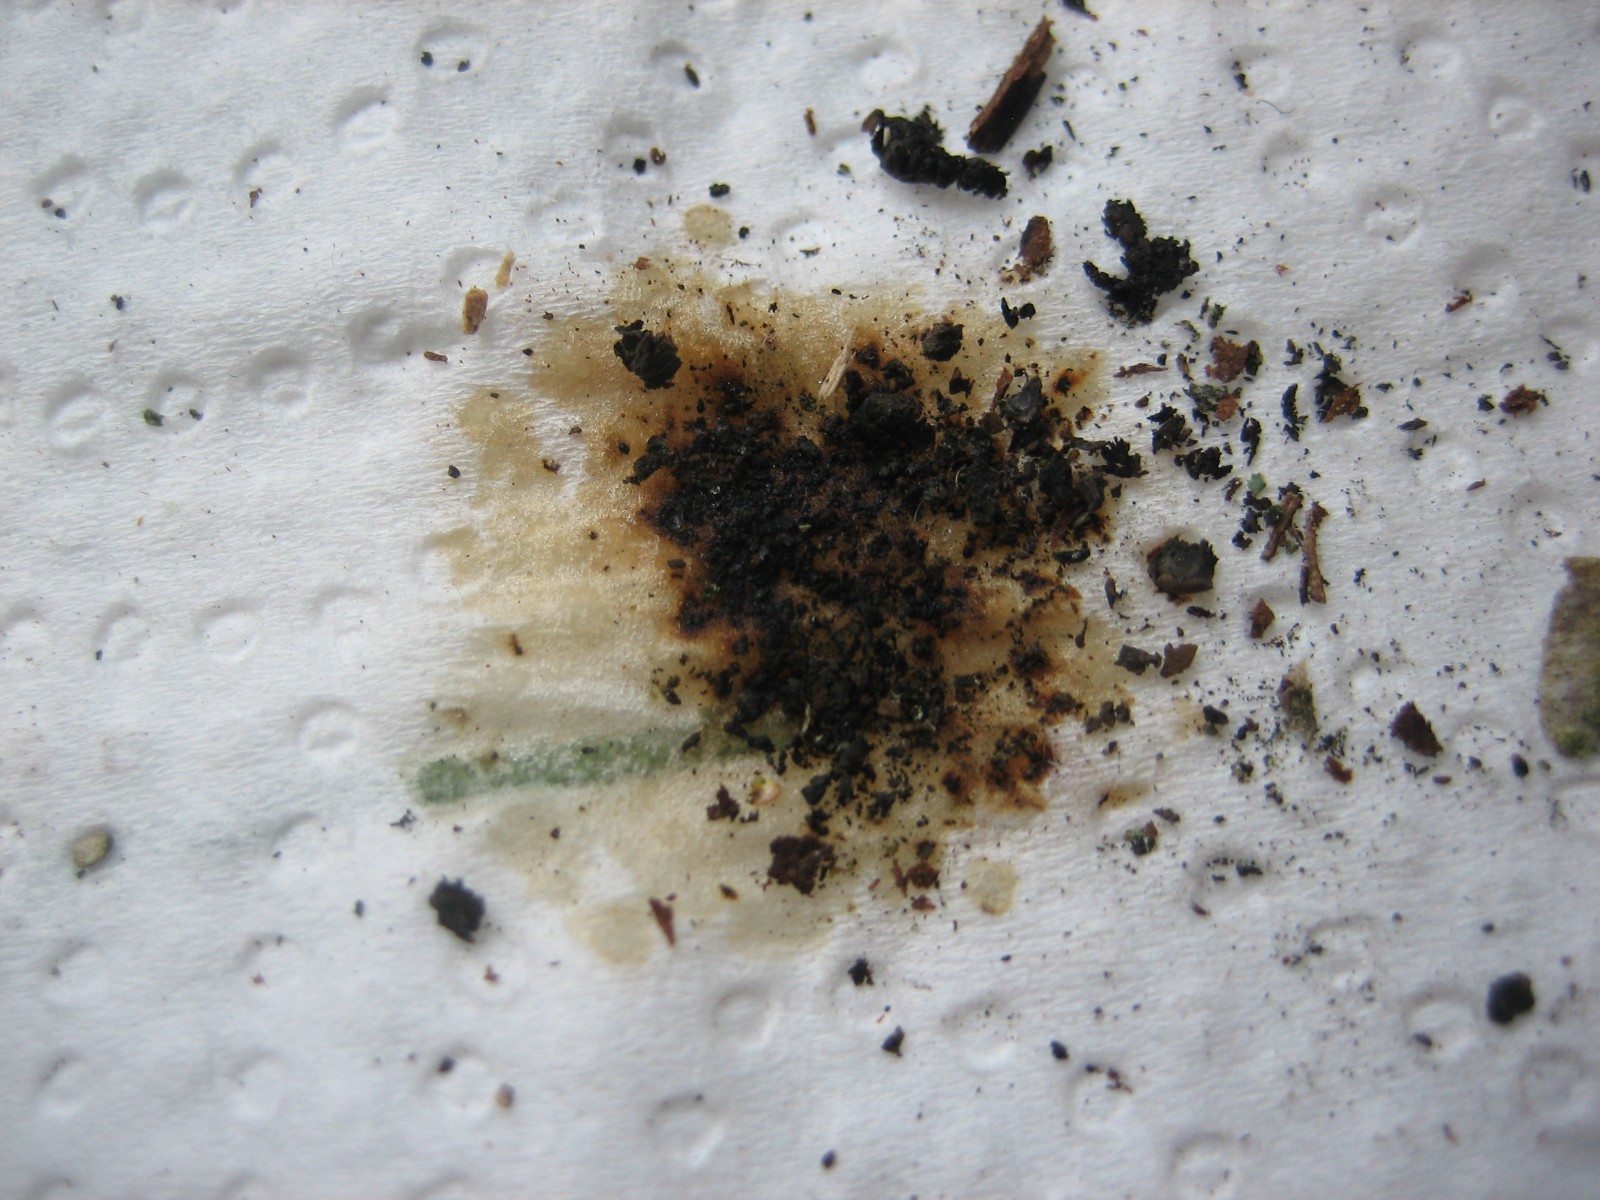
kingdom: Fungi
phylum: Ascomycota
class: Sordariomycetes
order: Xylariales
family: Hypoxylaceae
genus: Jackrogersella
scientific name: Jackrogersella multiformis
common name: foranderlig kulbær
